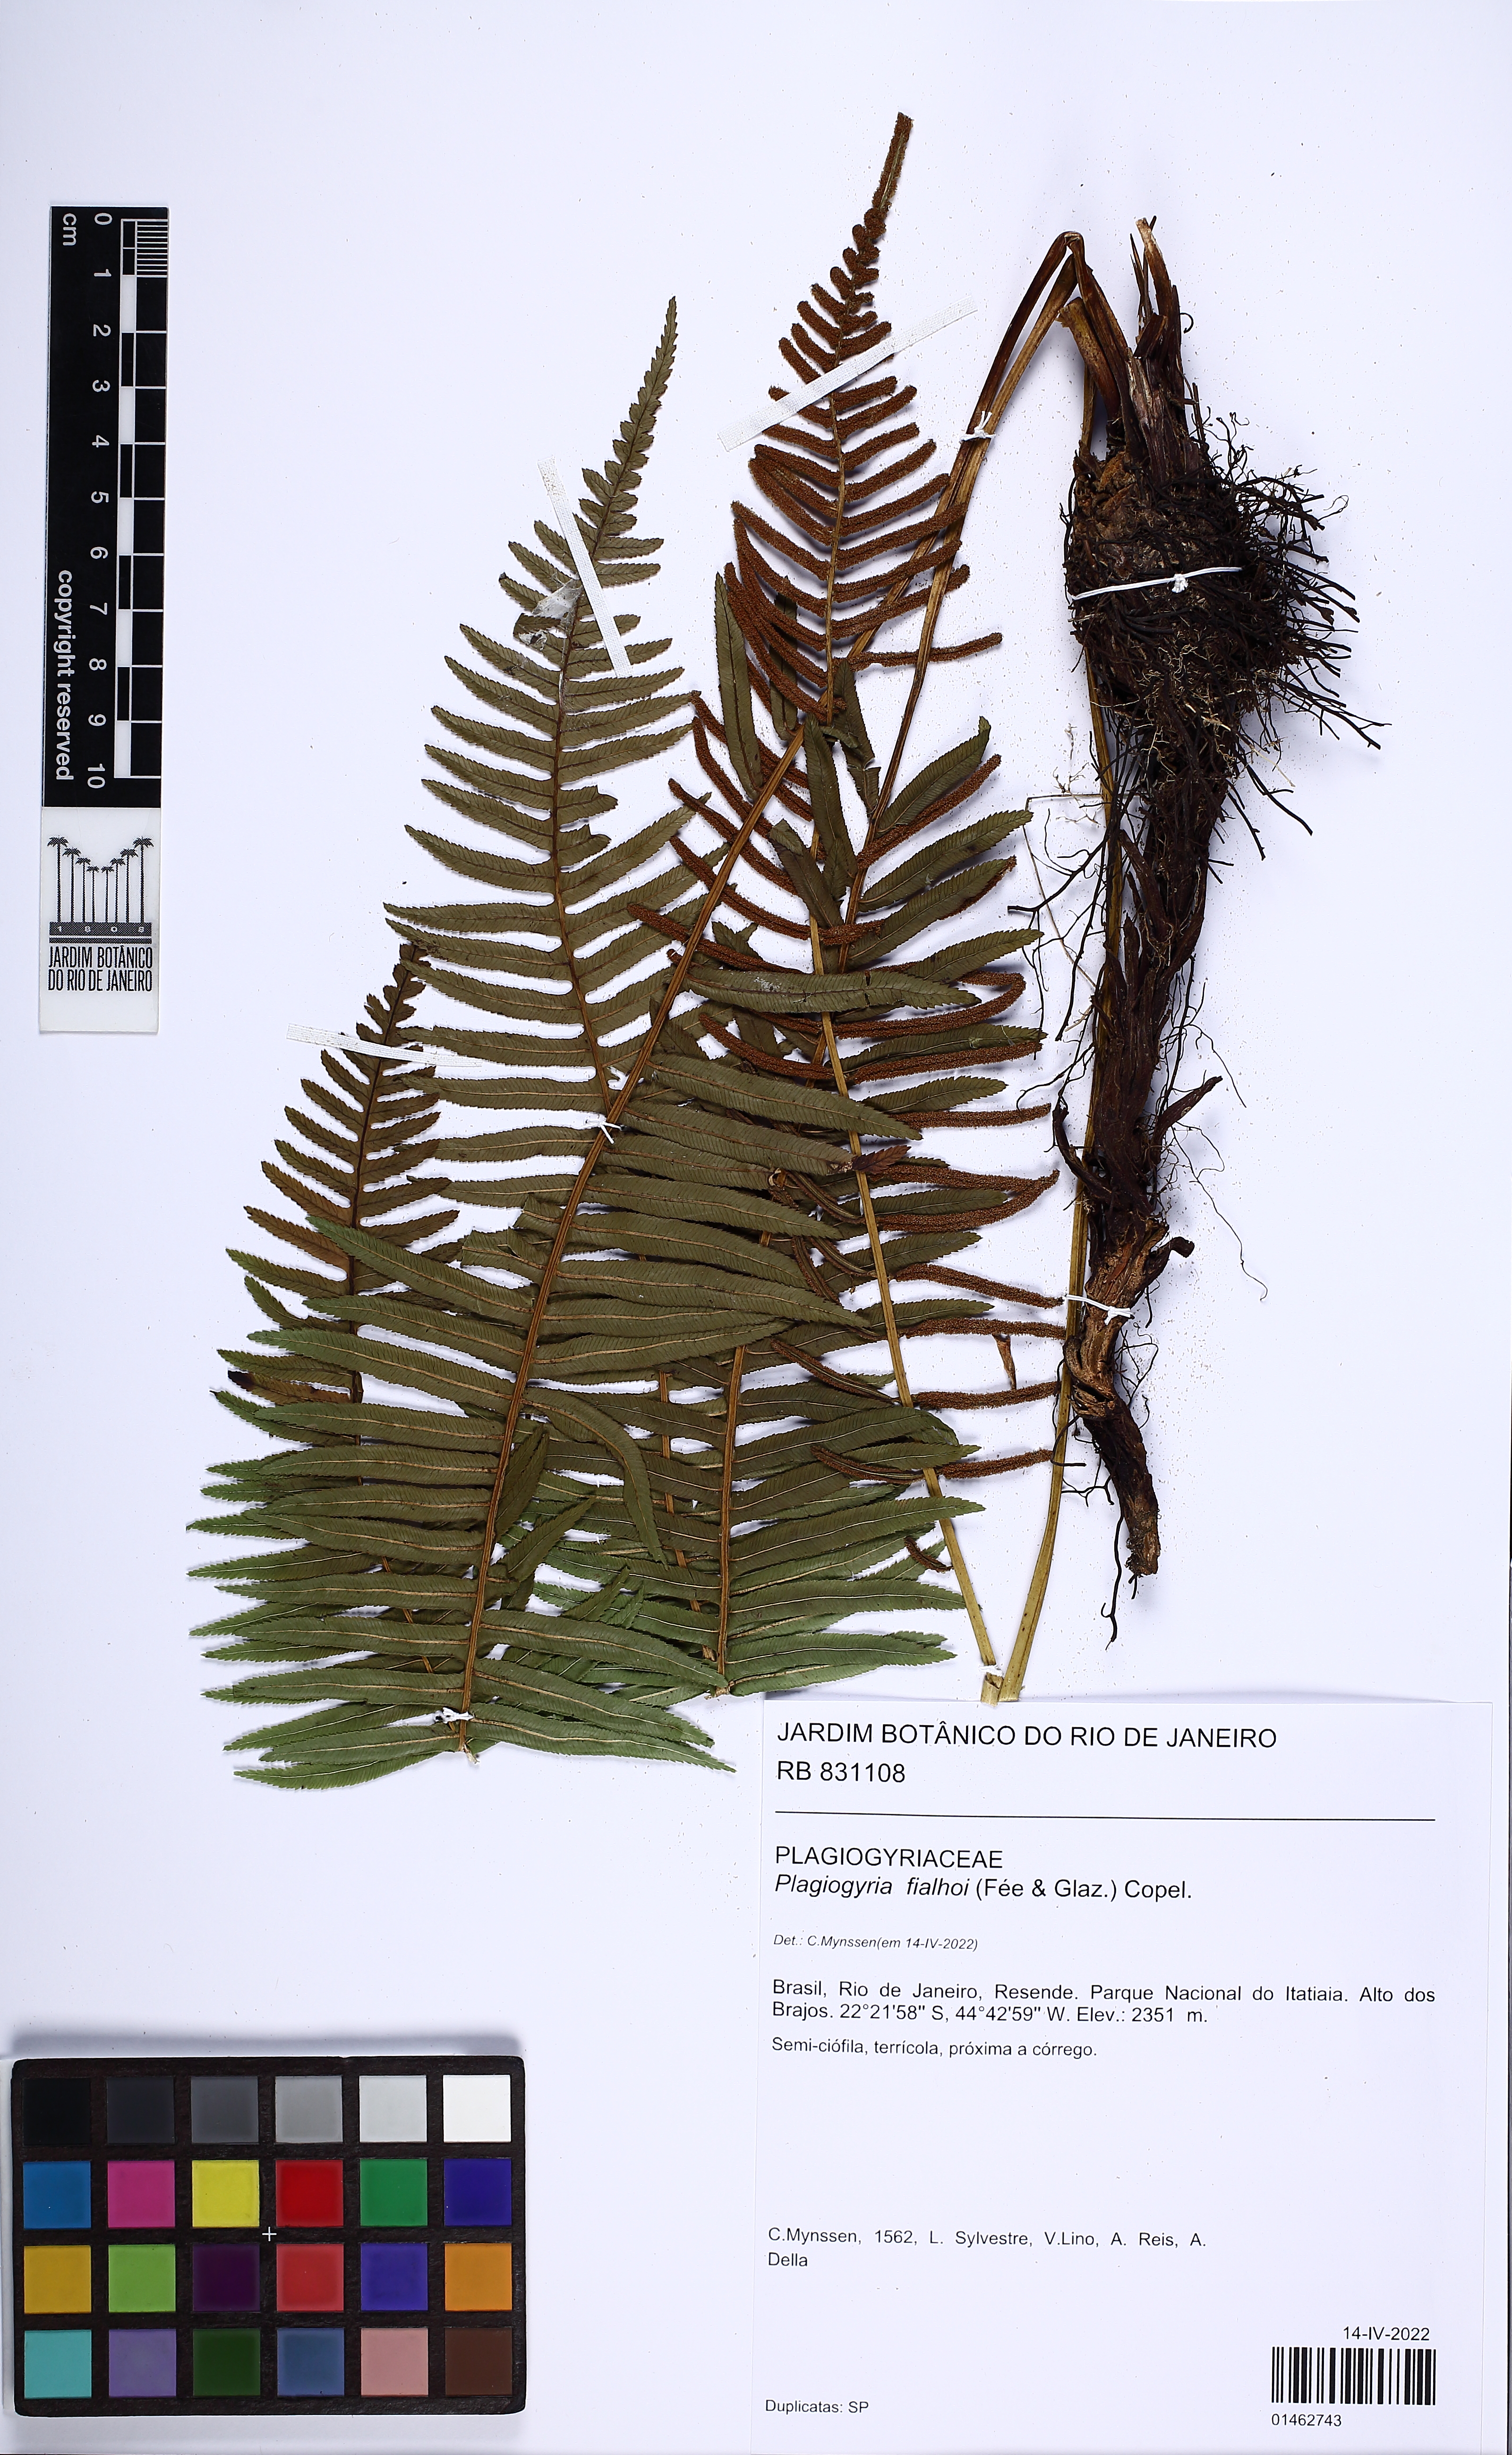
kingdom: Plantae
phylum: Tracheophyta
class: Polypodiopsida
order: Cyatheales
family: Plagiogyriaceae
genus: Plagiogyria
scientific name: Plagiogyria pectinata
